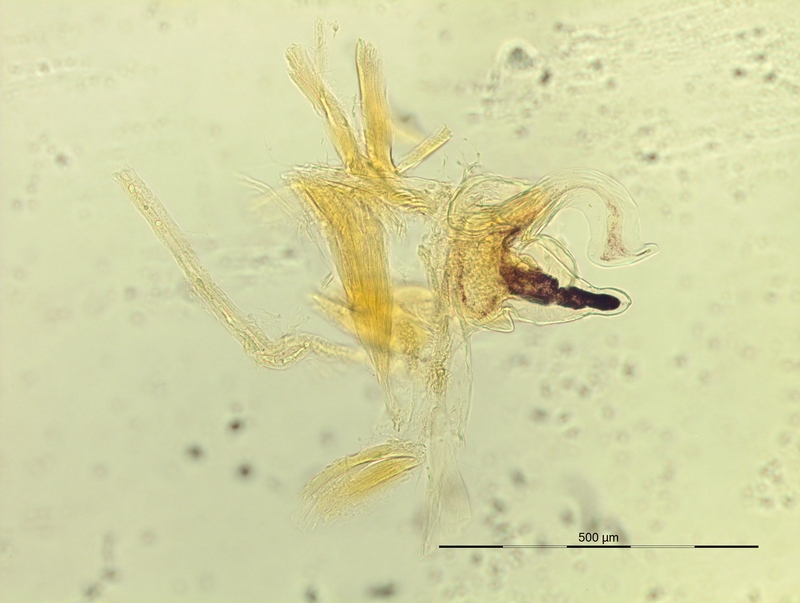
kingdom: Animalia
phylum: Arthropoda
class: Diplopoda
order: Chordeumatida
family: Craspedosomatidae
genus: Iulogona
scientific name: Iulogona tirolensis
